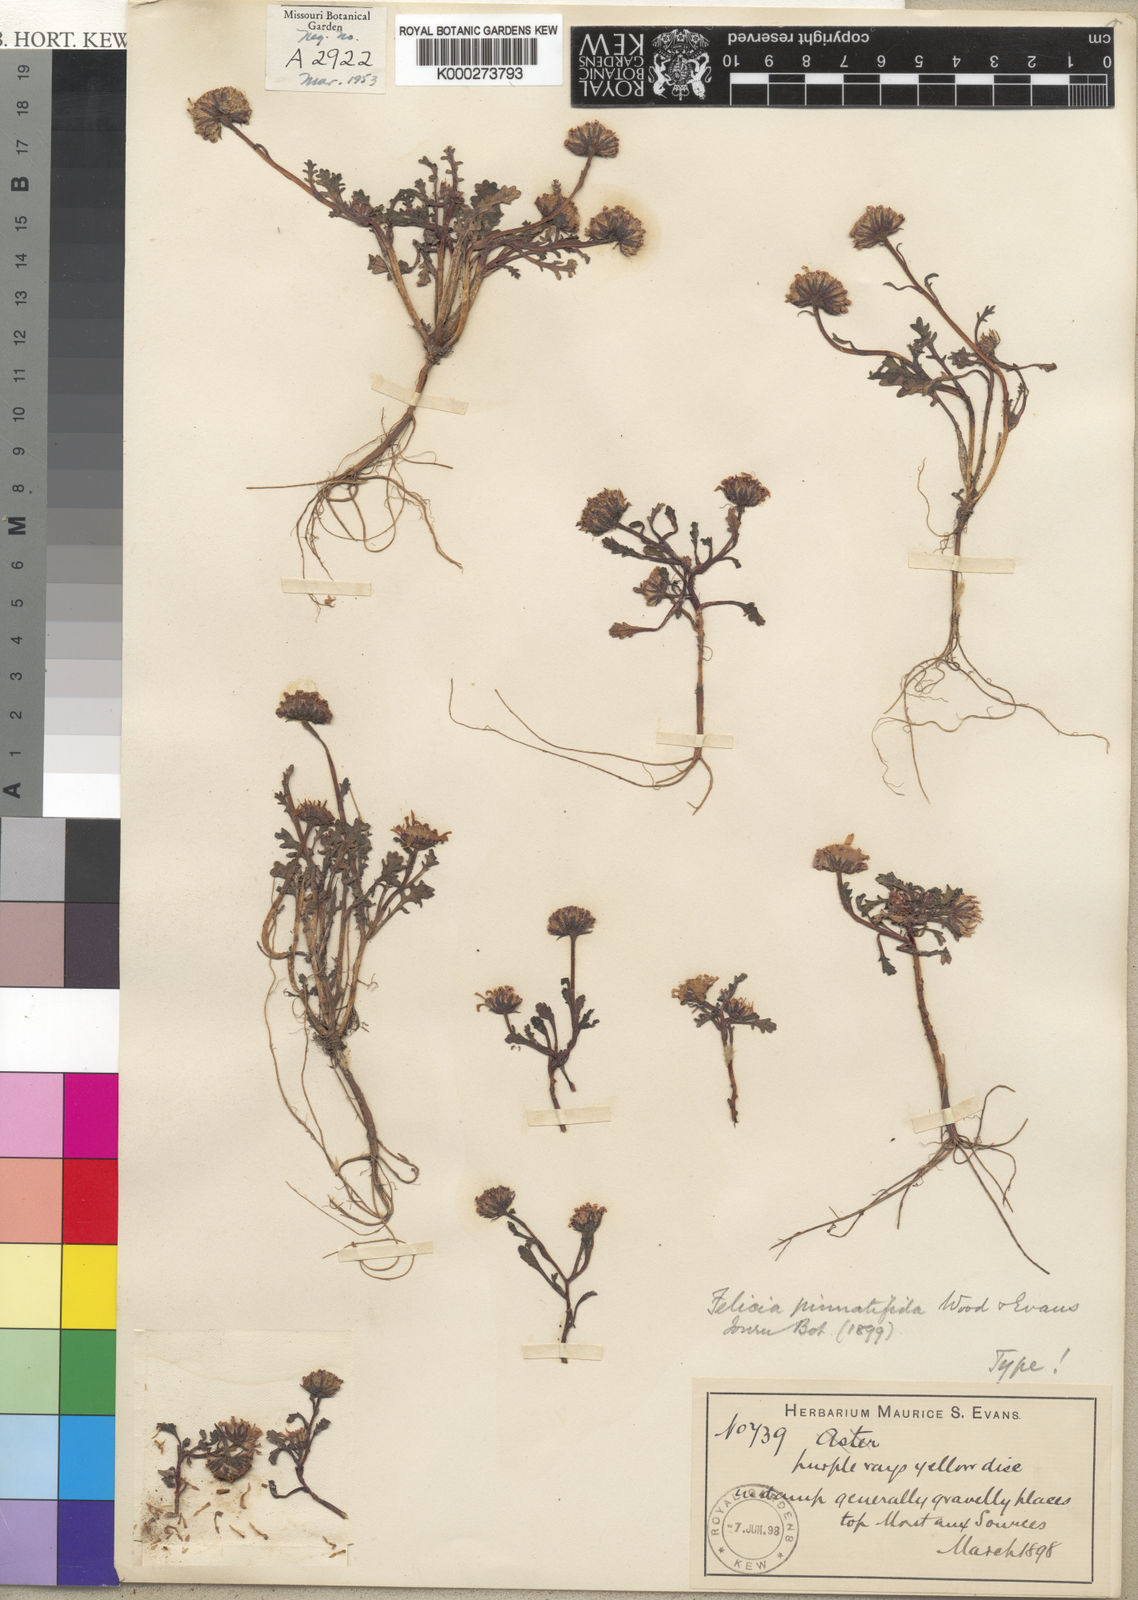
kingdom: Plantae
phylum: Tracheophyta
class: Magnoliopsida
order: Asterales
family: Asteraceae
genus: Polyarrhena
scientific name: Polyarrhena
